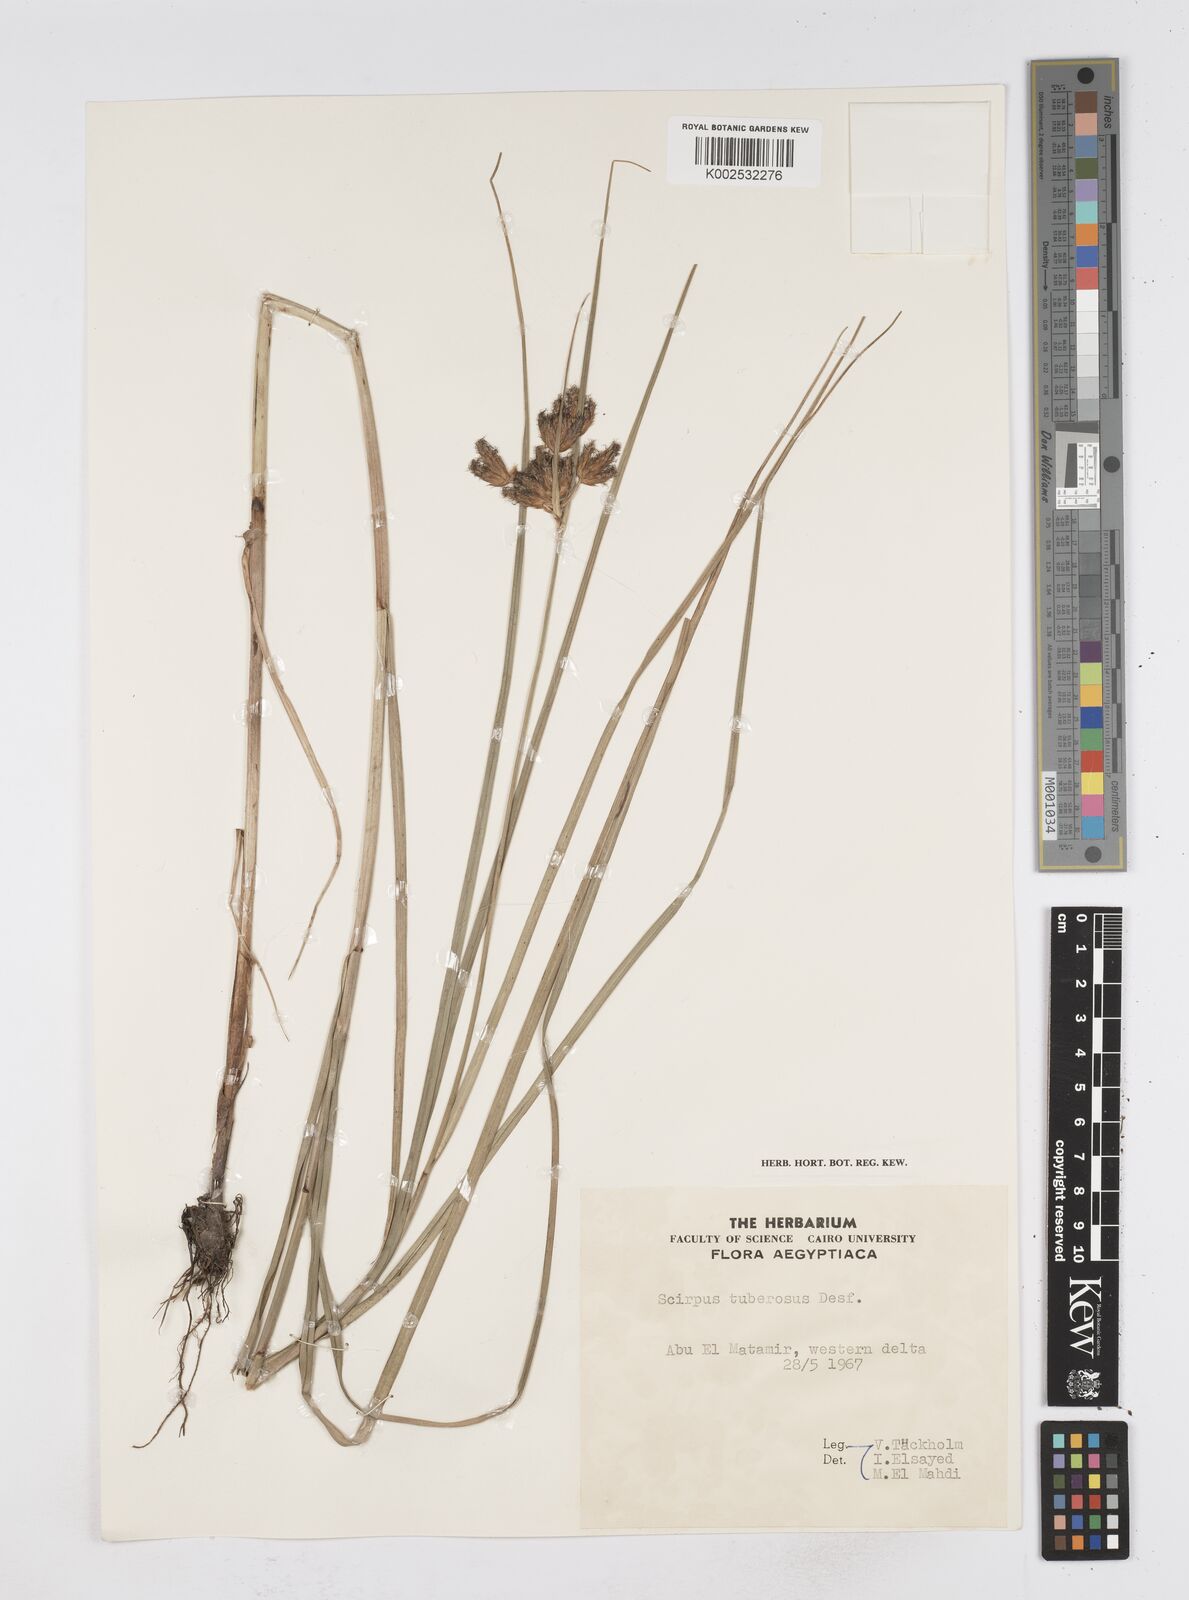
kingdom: Plantae
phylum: Tracheophyta
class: Liliopsida
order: Poales
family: Cyperaceae
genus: Bolboschoenus
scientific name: Bolboschoenus maritimus
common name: Sea club-rush
